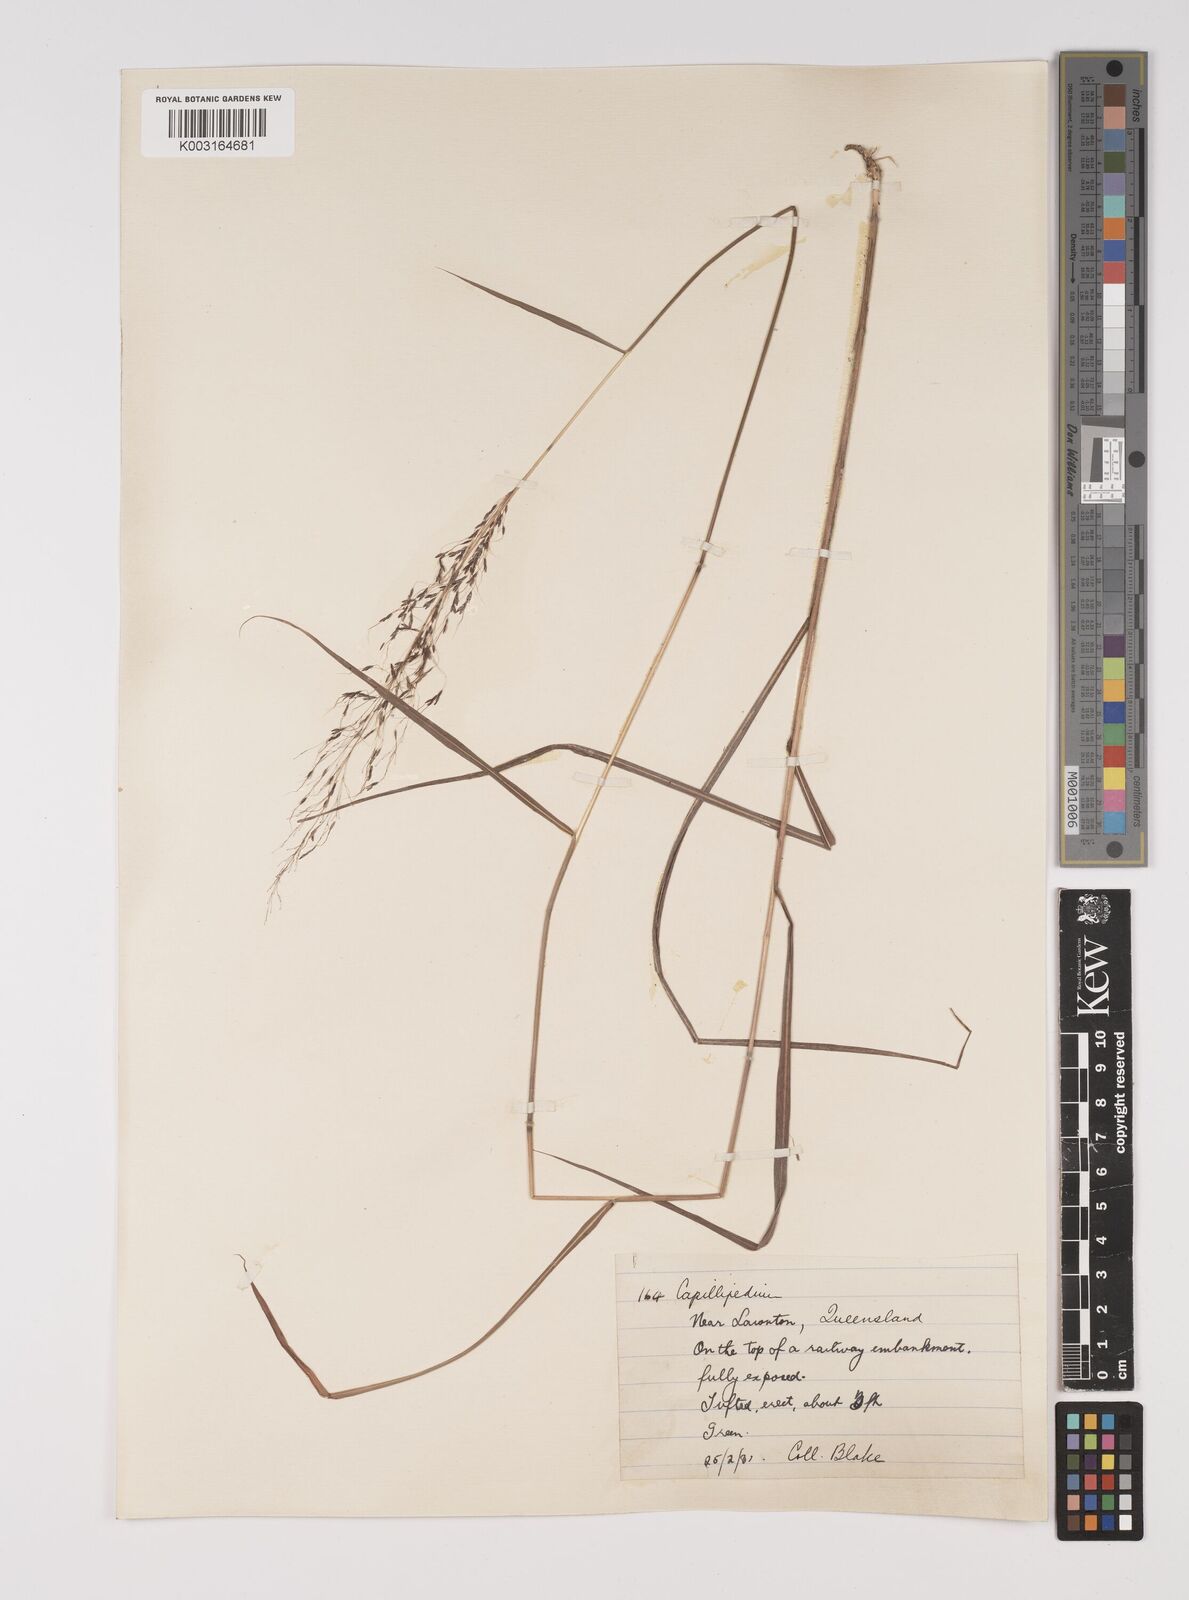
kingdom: Plantae
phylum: Tracheophyta
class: Liliopsida
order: Poales
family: Poaceae
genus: Capillipedium
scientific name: Capillipedium parviflorum
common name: Golden-beard
